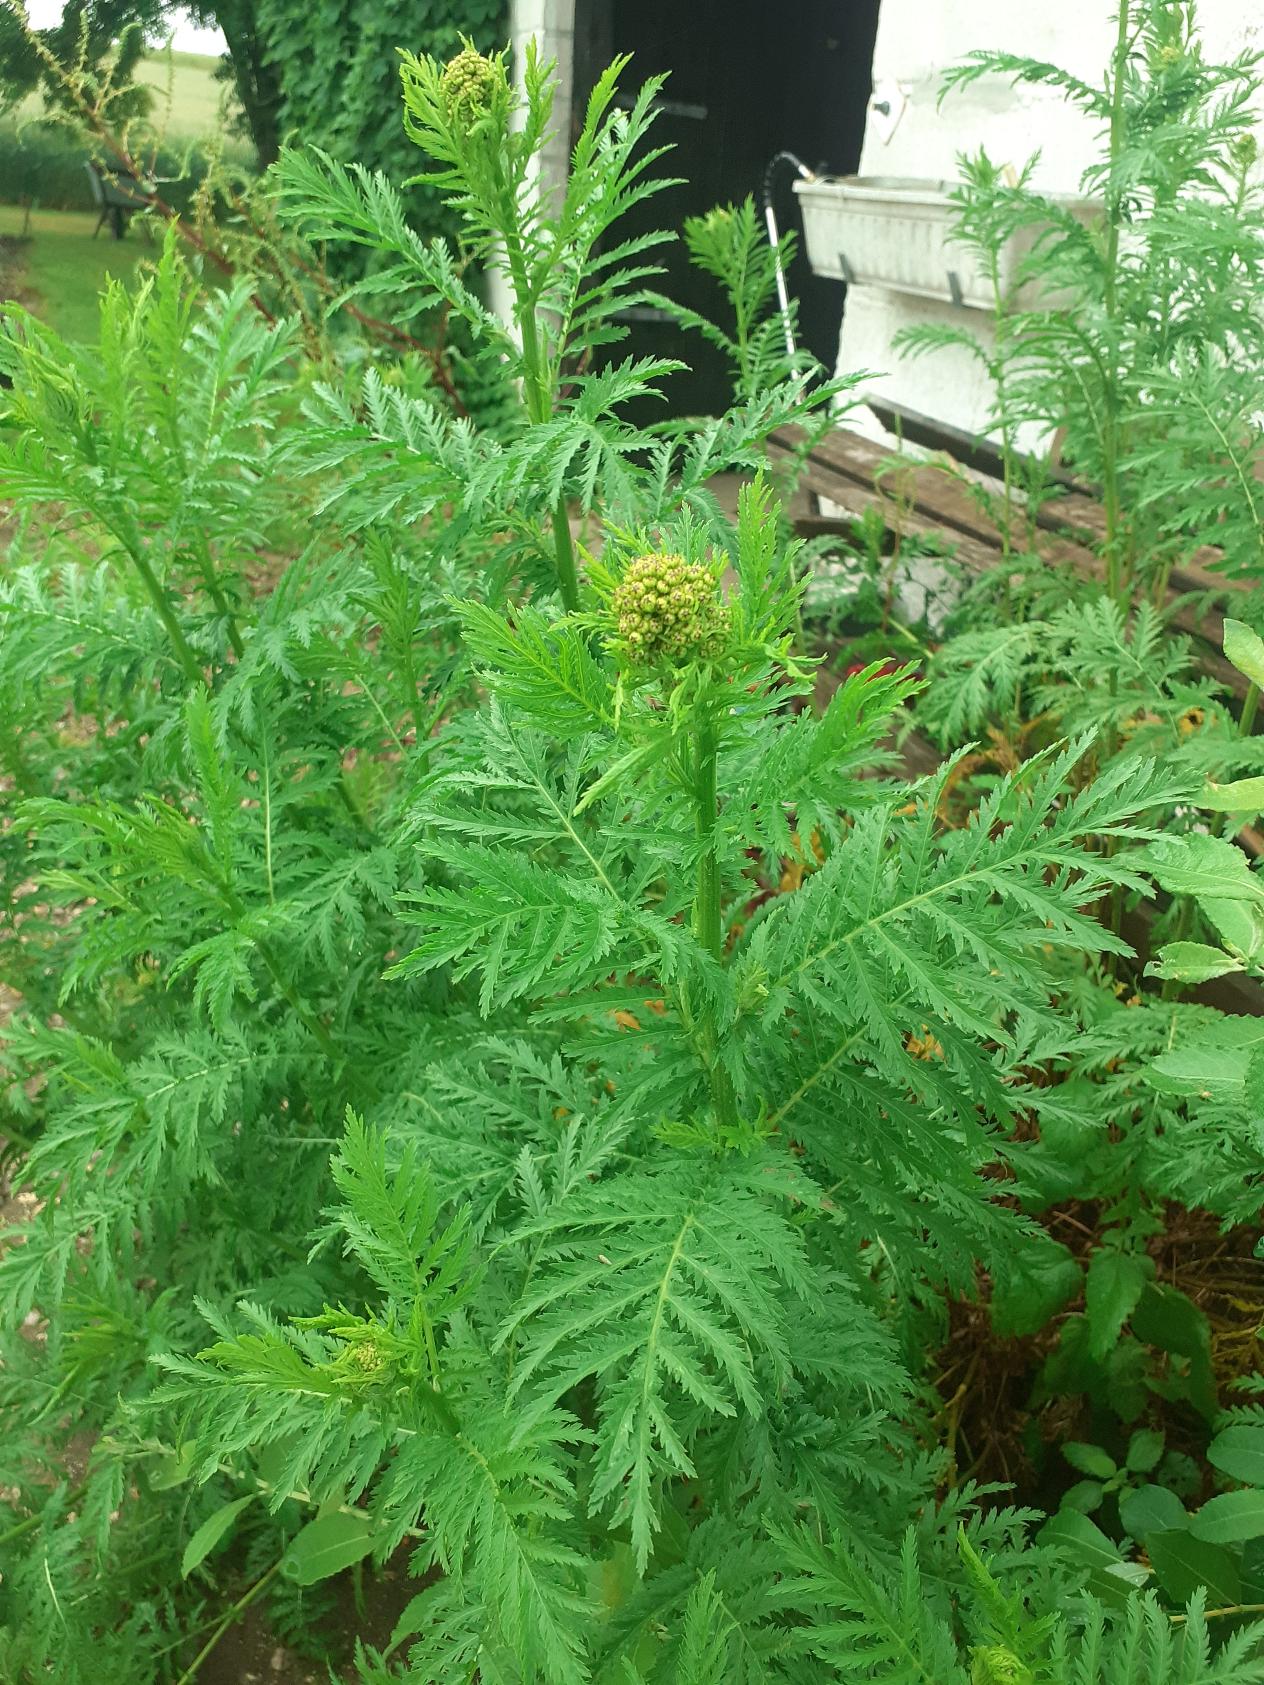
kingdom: Plantae
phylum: Tracheophyta
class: Magnoliopsida
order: Asterales
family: Asteraceae
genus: Tanacetum
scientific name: Tanacetum vulgare
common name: Rejnfan
